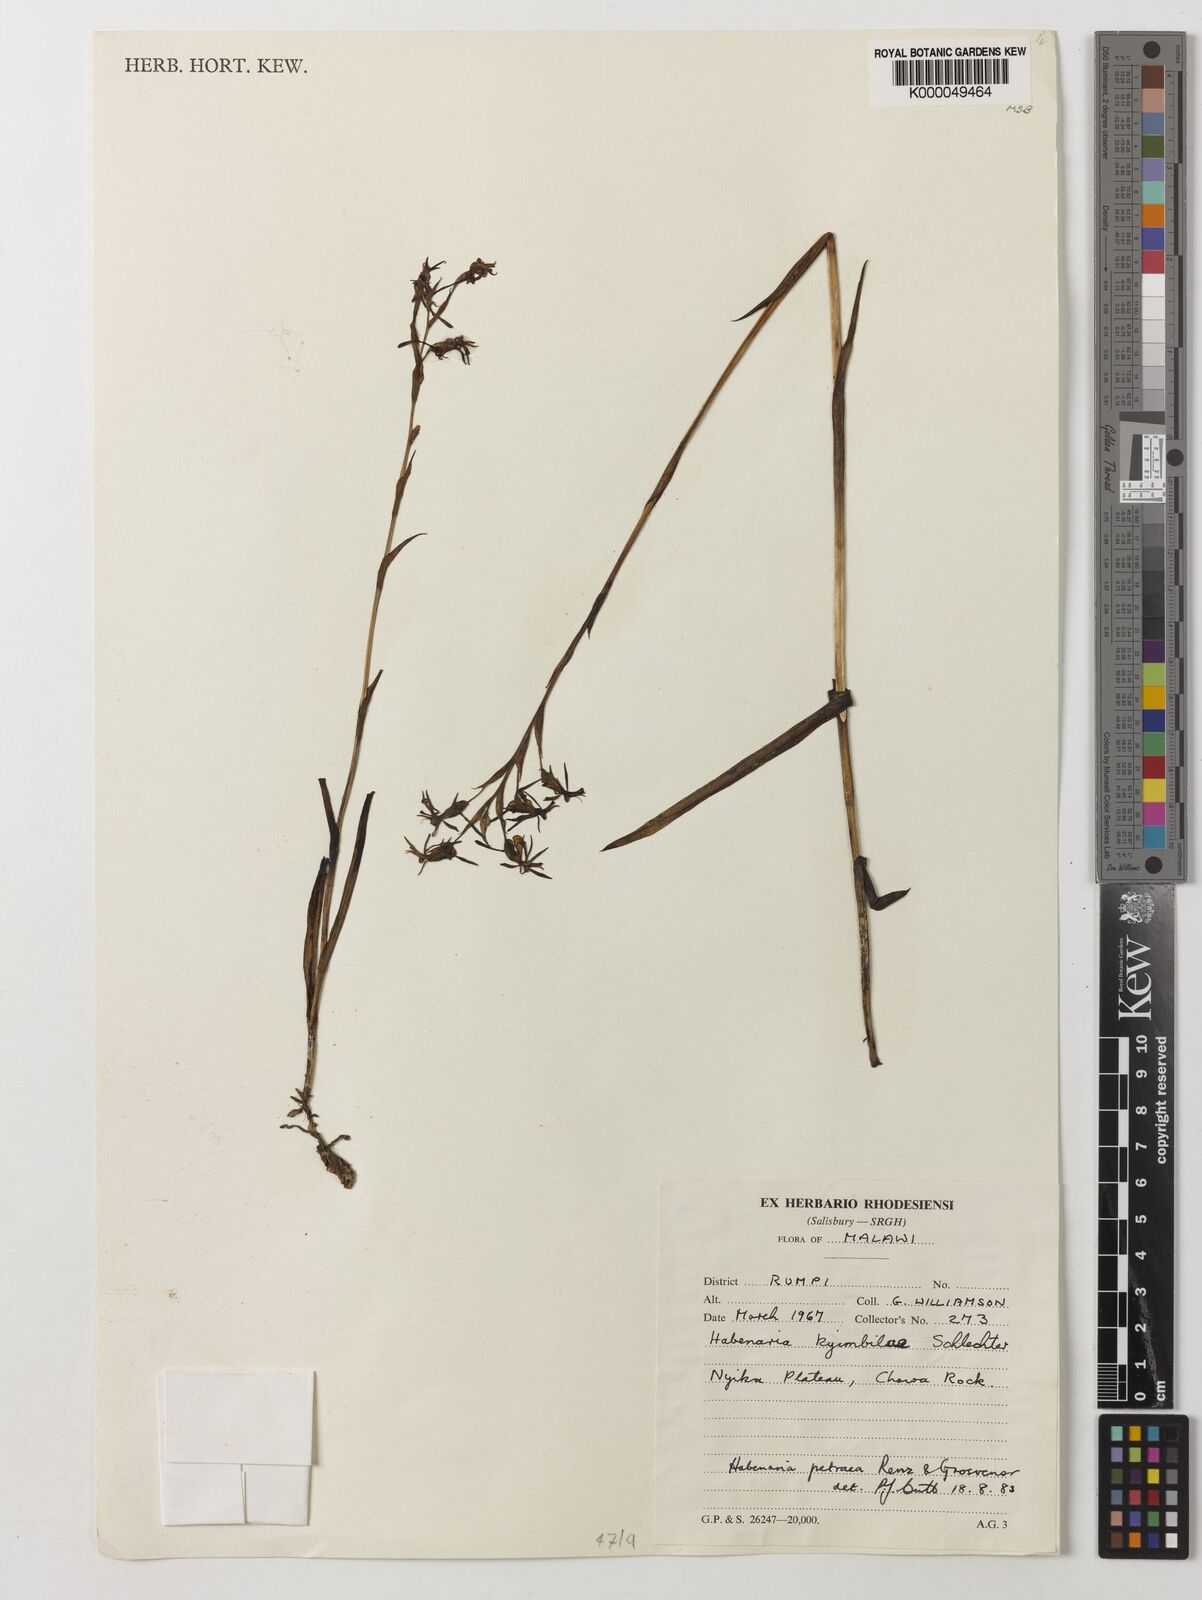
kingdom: Plantae
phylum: Tracheophyta
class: Liliopsida
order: Asparagales
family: Orchidaceae
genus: Habenaria
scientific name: Habenaria petraea
